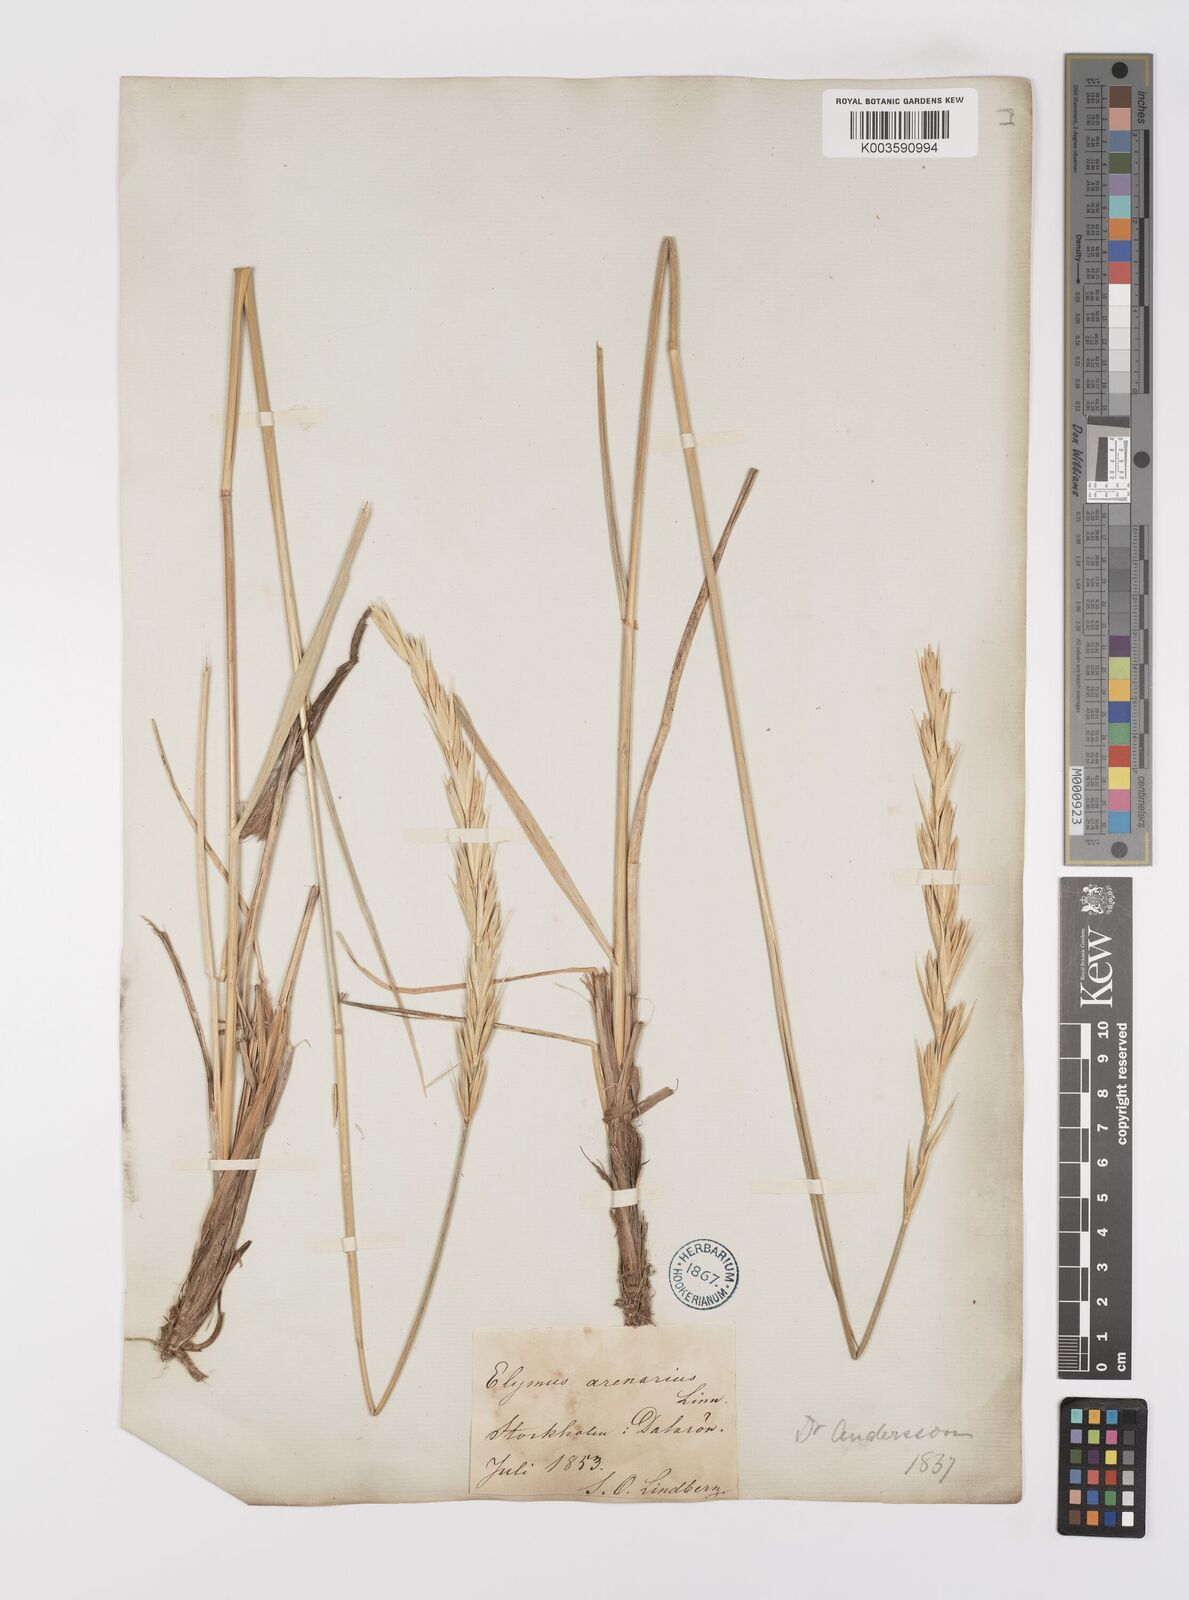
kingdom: Plantae
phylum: Tracheophyta
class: Liliopsida
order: Poales
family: Poaceae
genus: Leymus
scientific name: Leymus arenarius
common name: Lyme-grass
